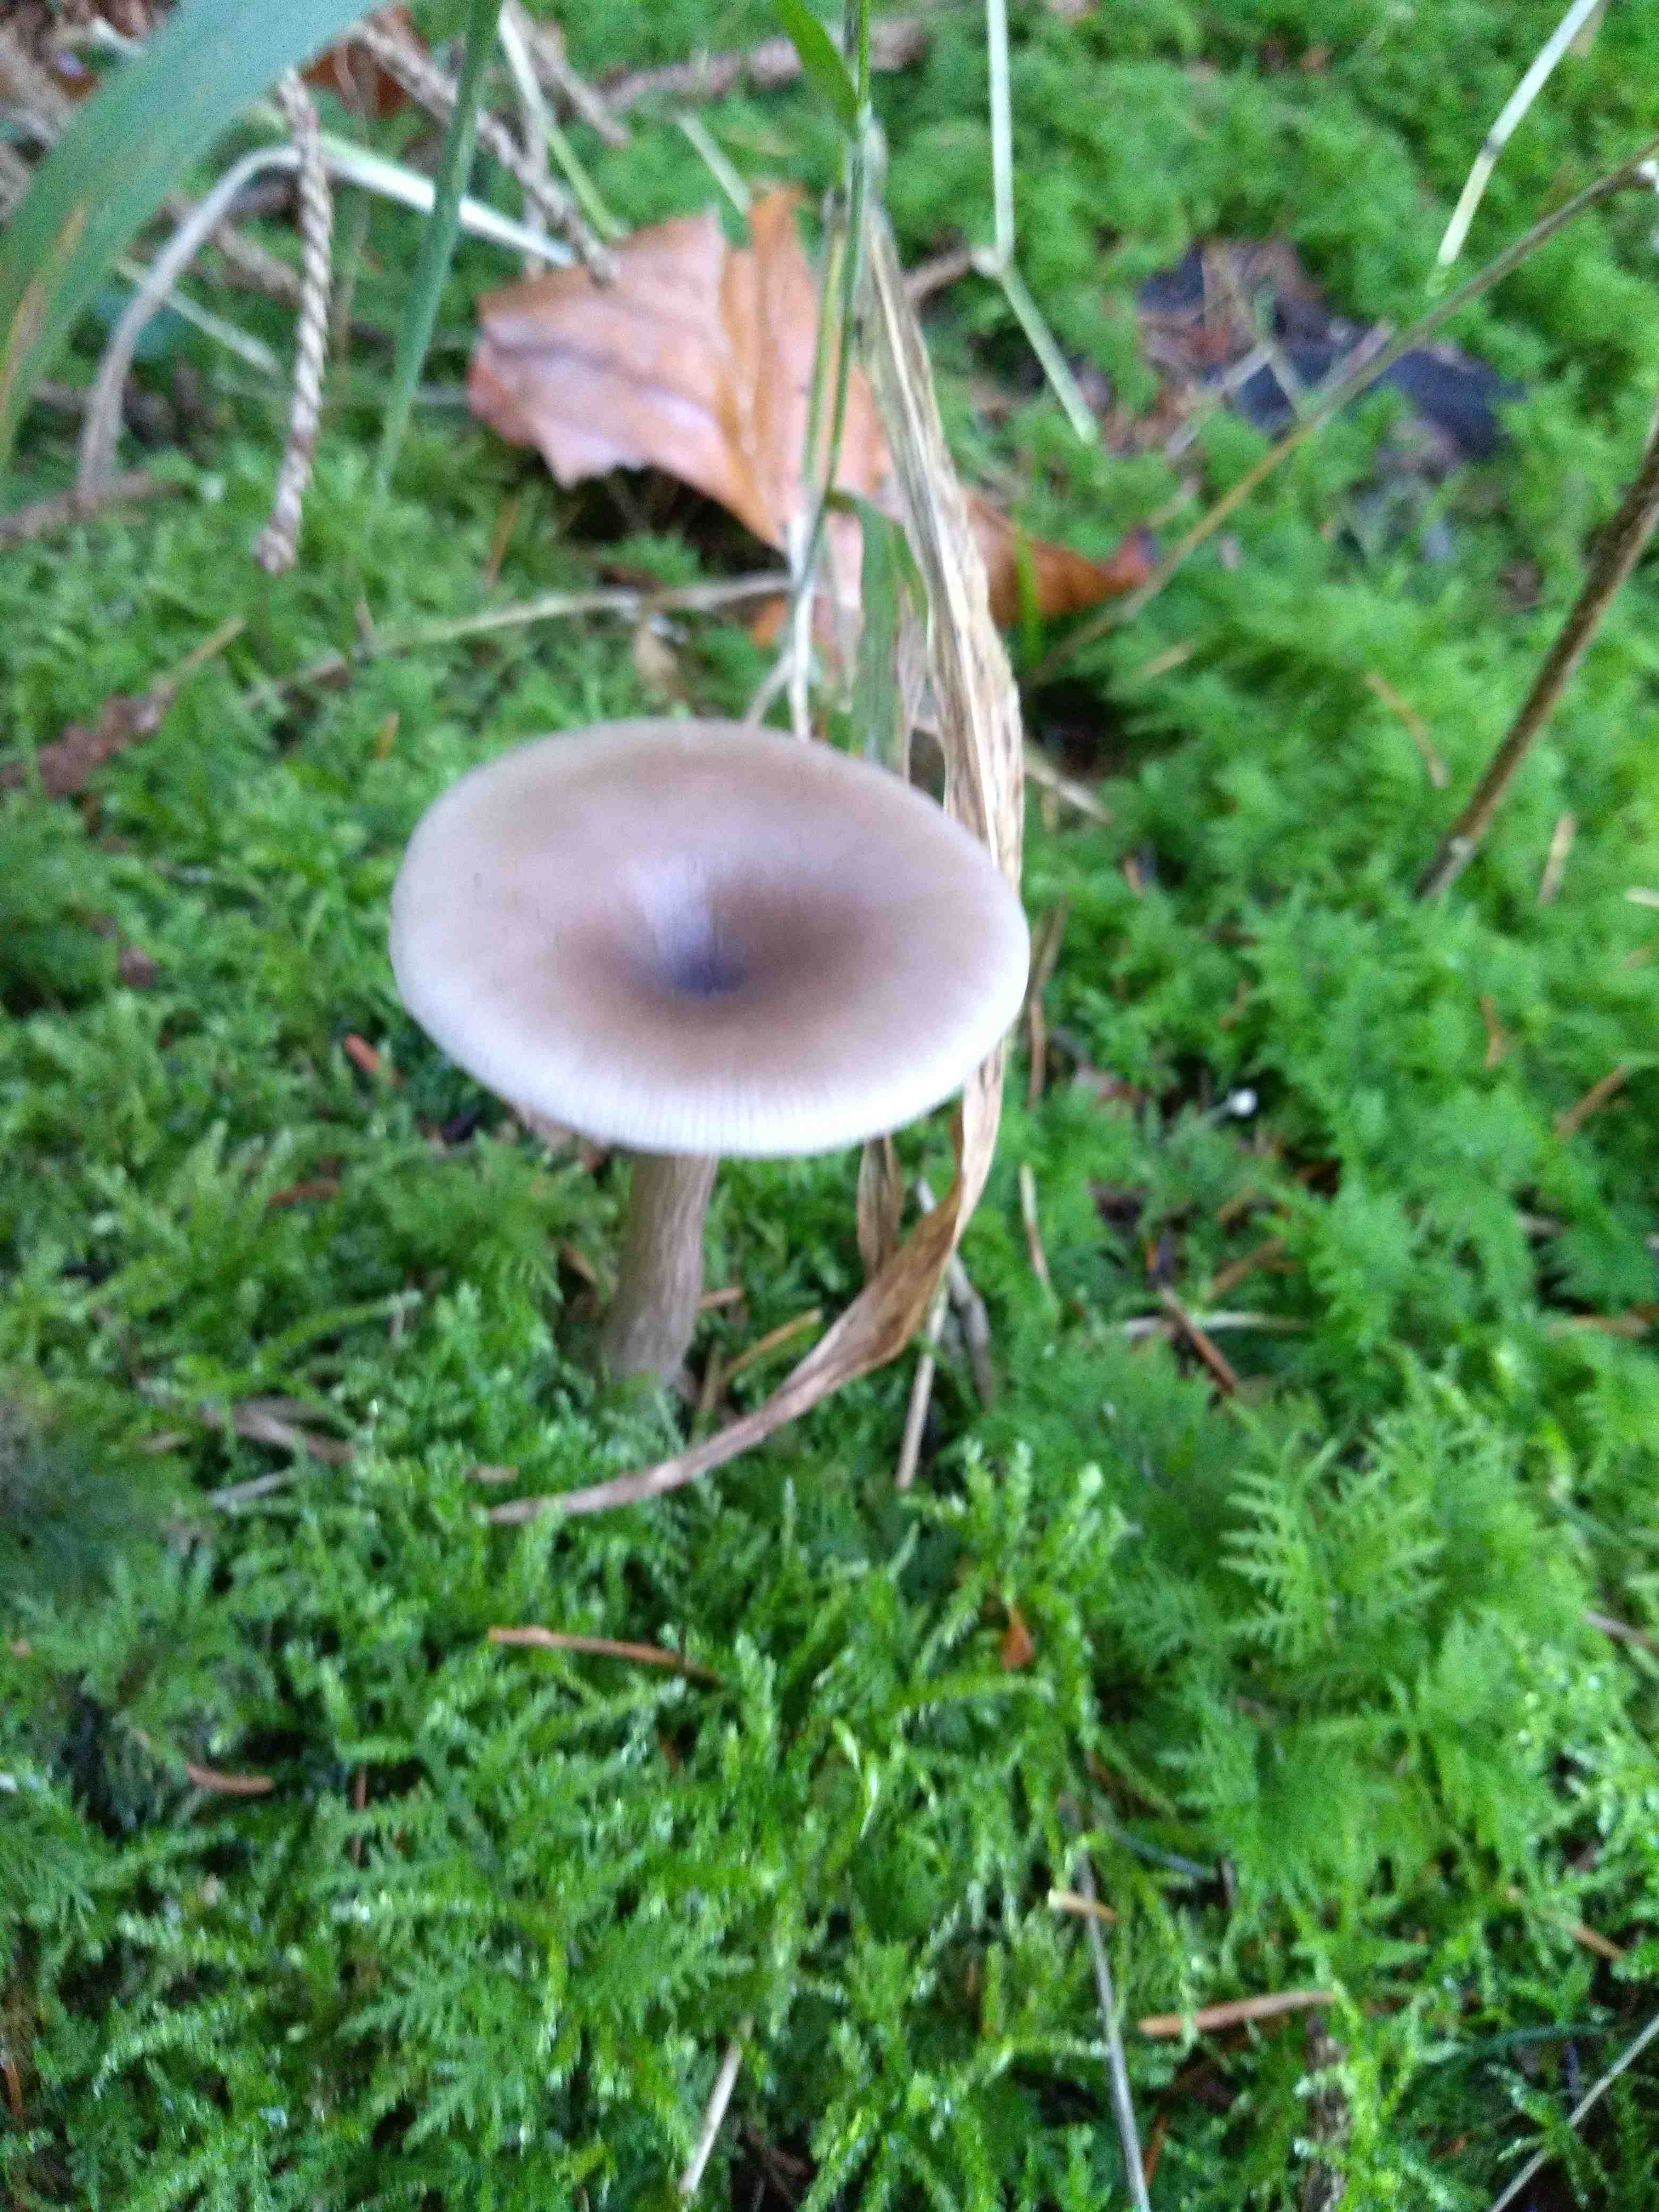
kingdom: Fungi
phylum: Basidiomycota
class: Agaricomycetes
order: Agaricales
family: Pseudoclitocybaceae
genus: Pseudoclitocybe
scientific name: Pseudoclitocybe cyathiformis
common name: almindelig bægertragthat
